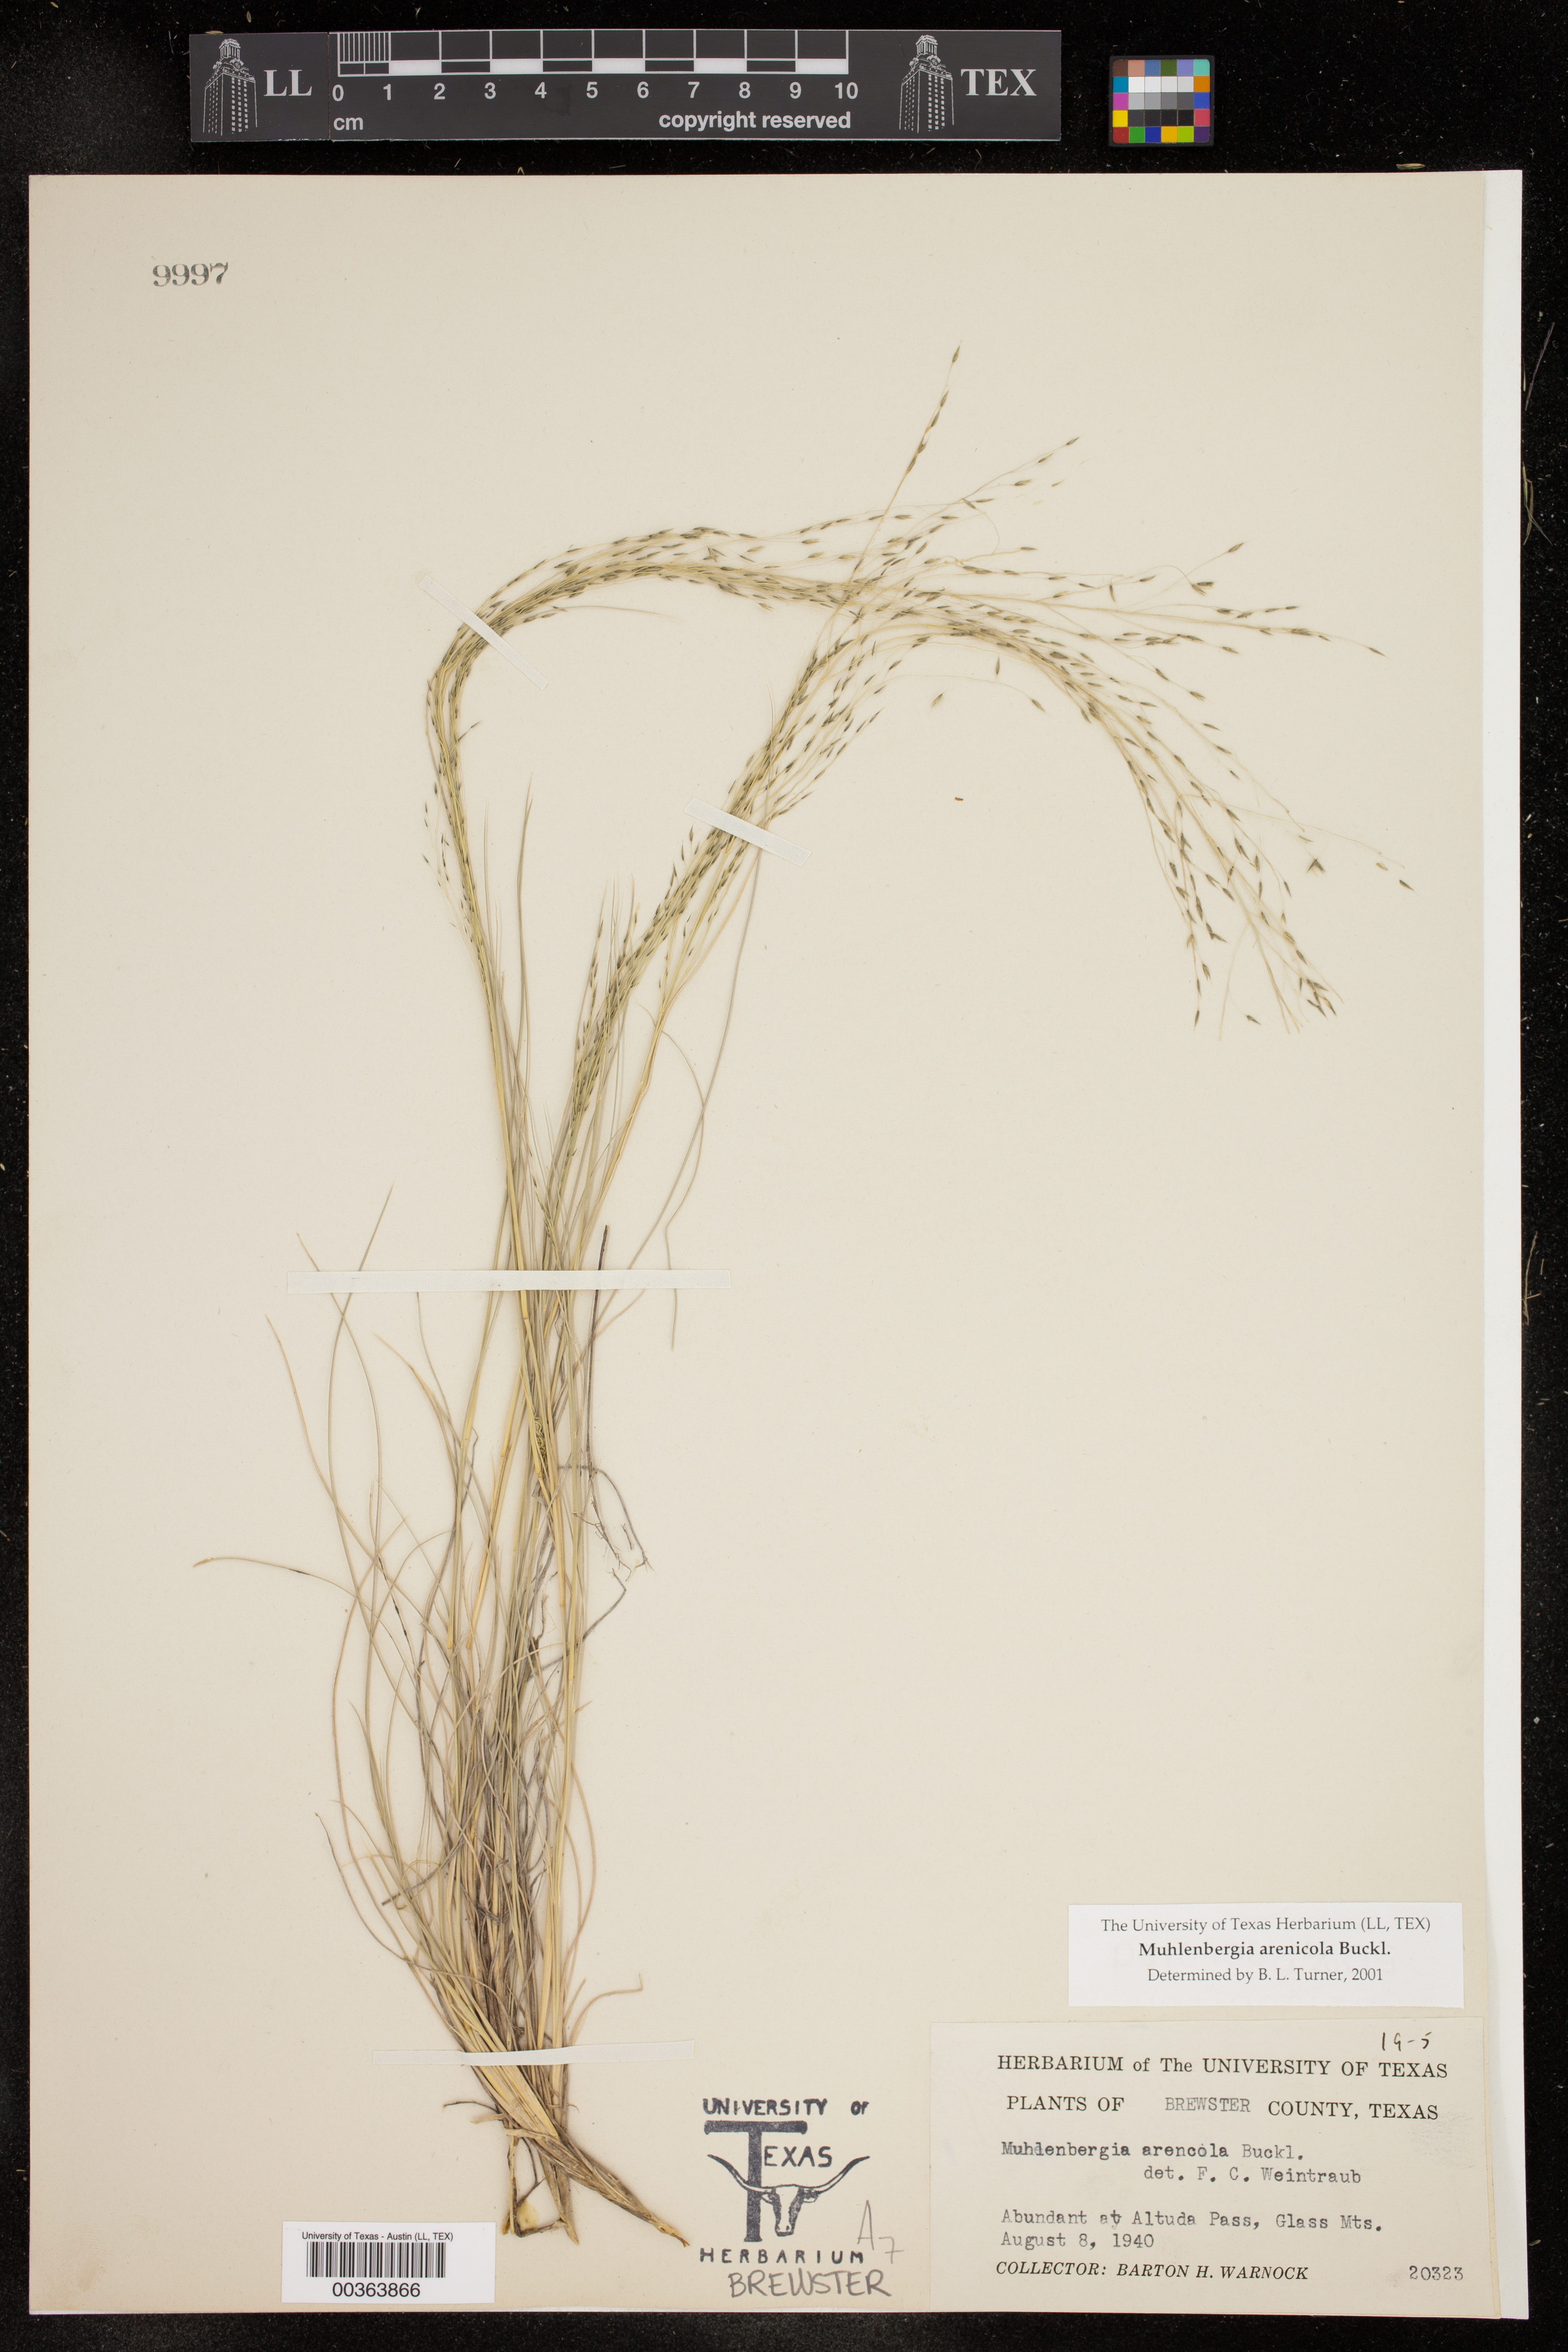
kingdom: Plantae
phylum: Tracheophyta
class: Liliopsida
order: Poales
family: Poaceae
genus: Muhlenbergia
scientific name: Muhlenbergia arenicola
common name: Sand muhly
